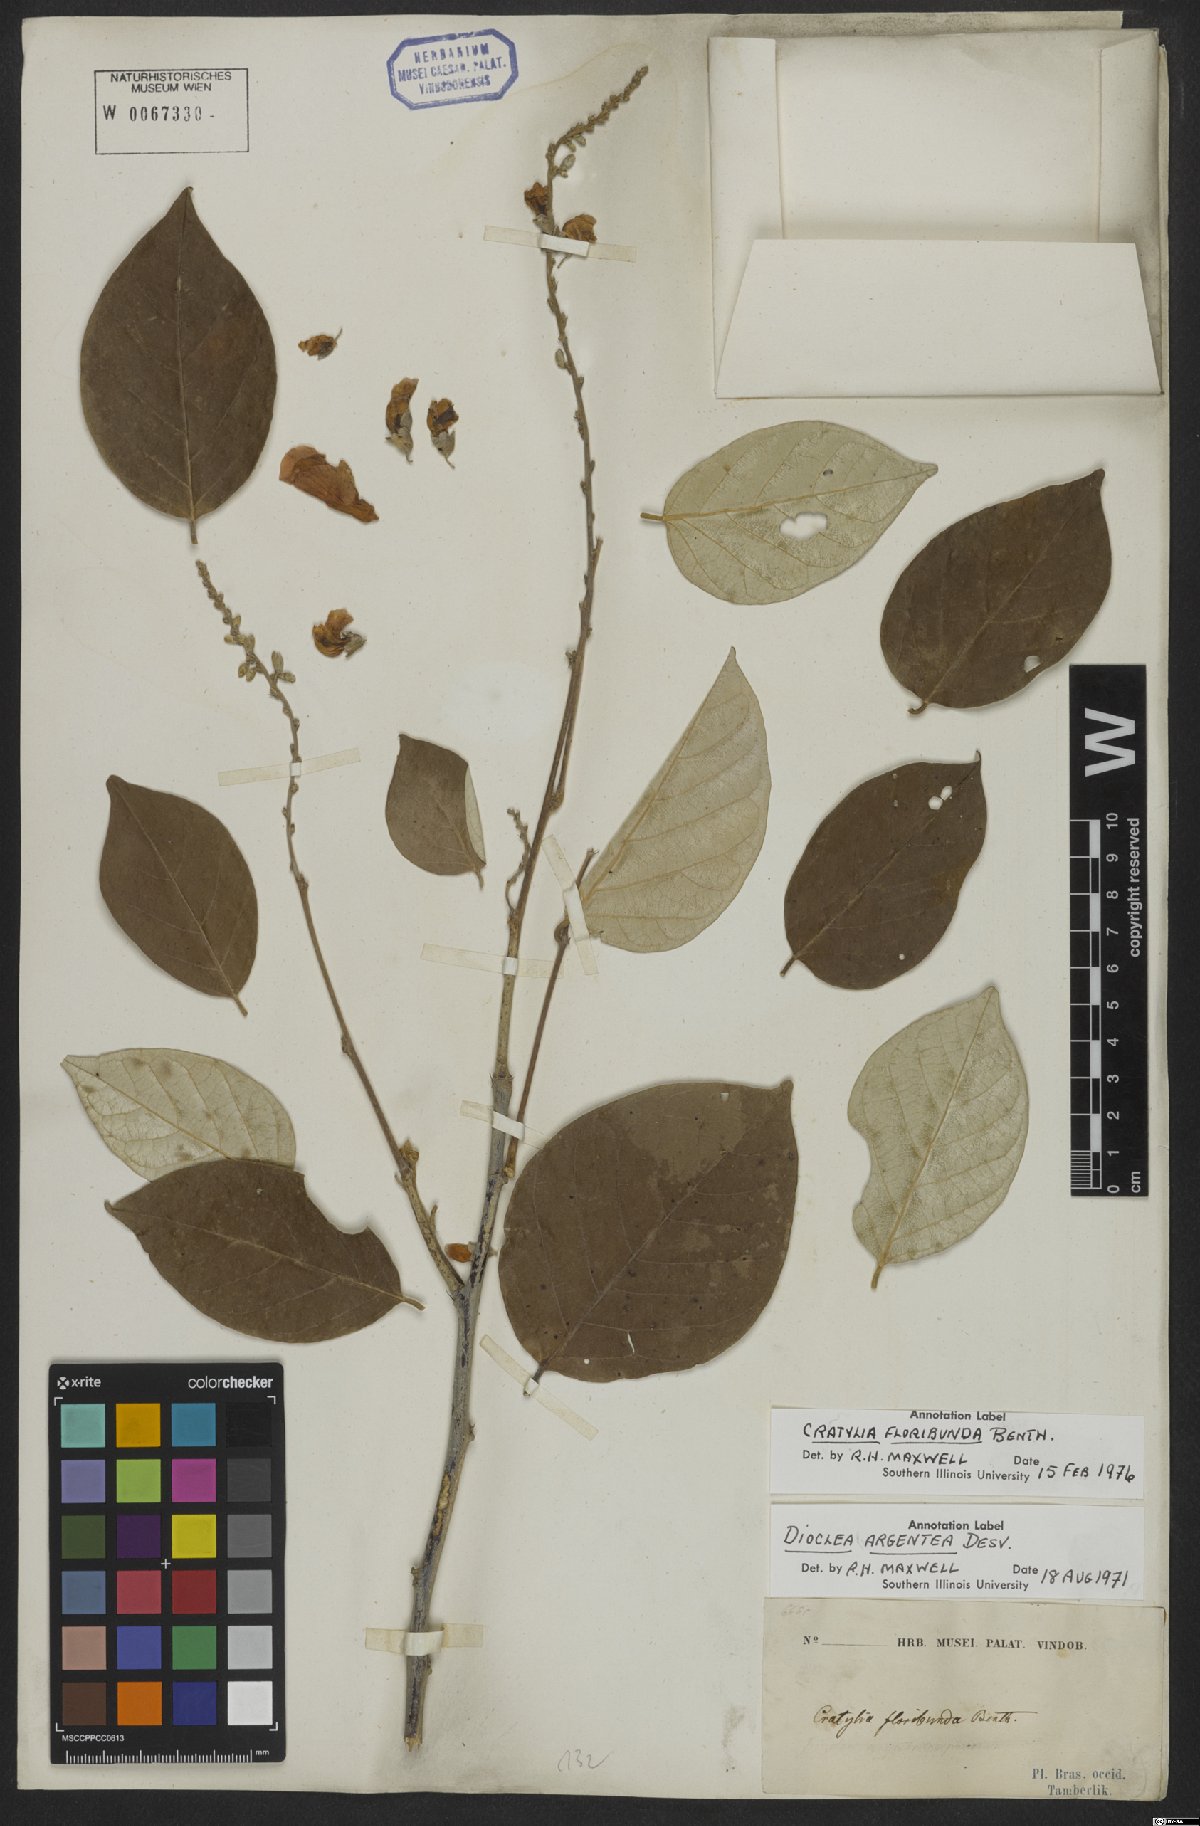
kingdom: Plantae
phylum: Tracheophyta
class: Magnoliopsida
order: Fabales
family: Fabaceae
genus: Cratylia
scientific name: Cratylia argentea
